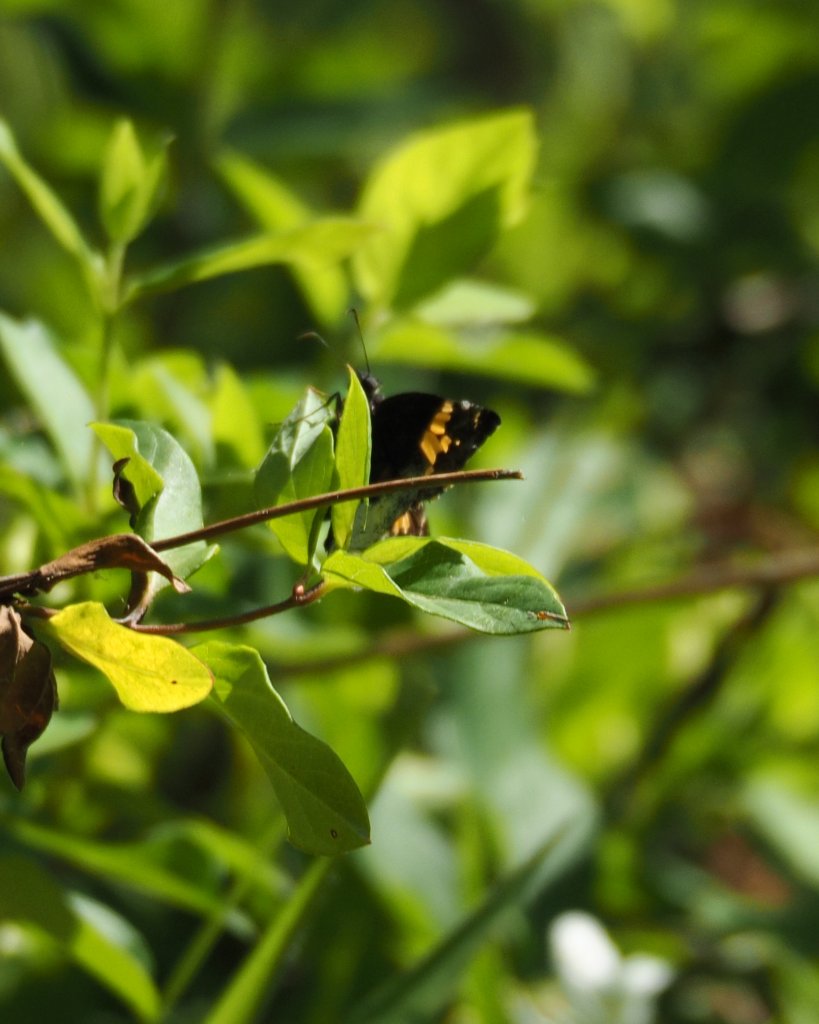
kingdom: Animalia
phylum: Arthropoda
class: Insecta
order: Lepidoptera
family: Hesperiidae
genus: Achalarus
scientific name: Achalarus lyciades
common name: Hoary Edge
